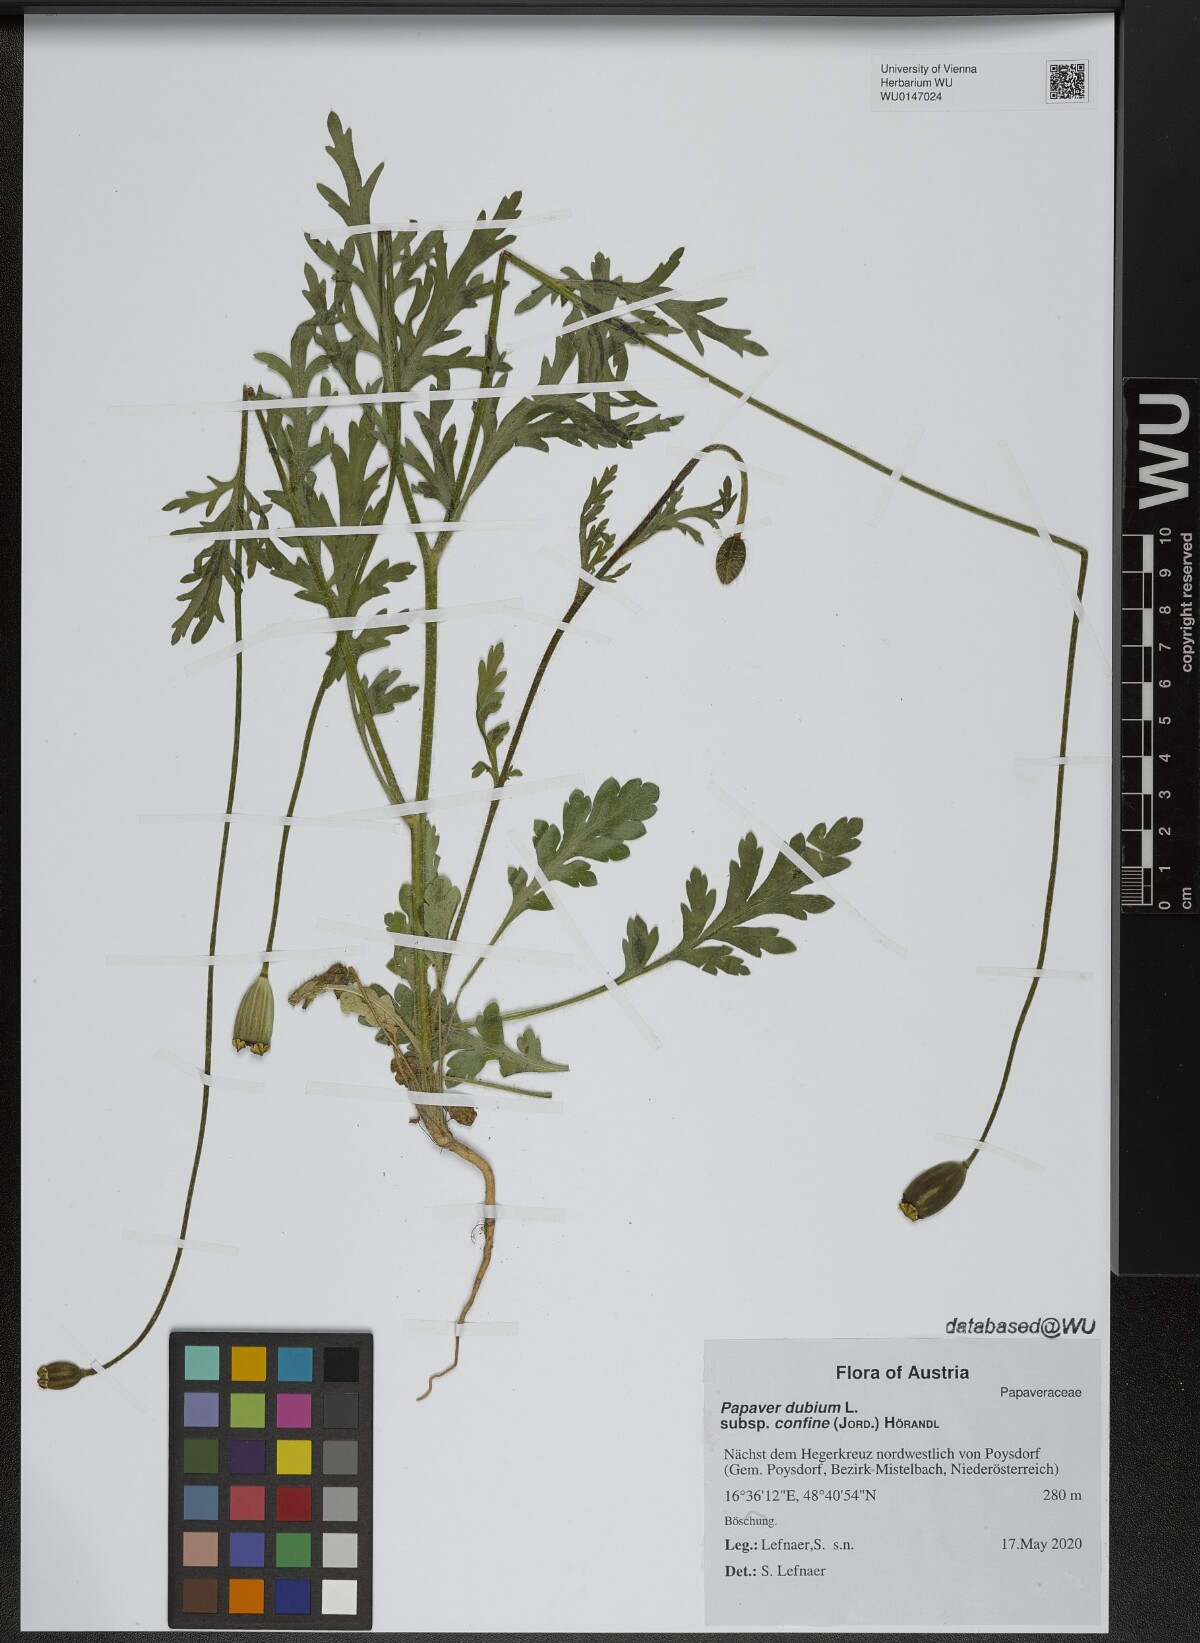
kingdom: Plantae
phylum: Tracheophyta
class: Magnoliopsida
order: Ranunculales
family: Papaveraceae
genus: Papaver
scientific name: Papaver confine
